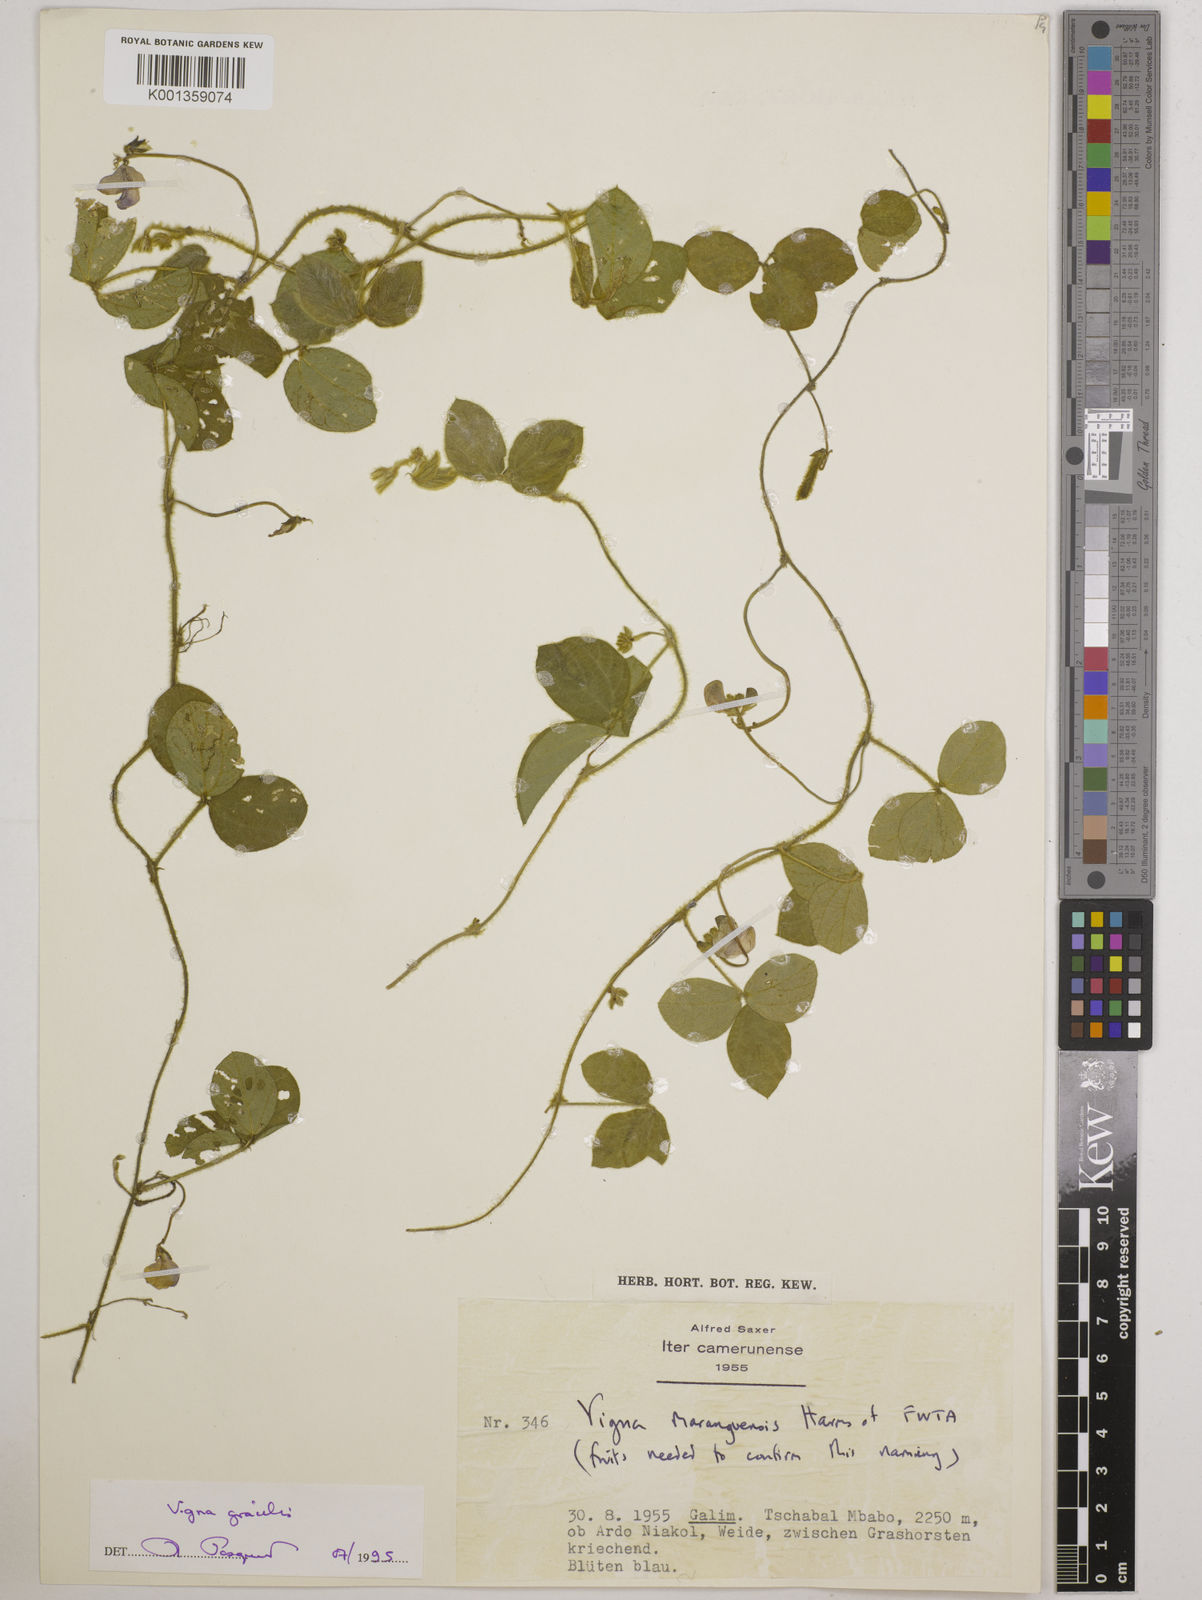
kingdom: Plantae
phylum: Tracheophyta
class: Magnoliopsida
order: Fabales
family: Fabaceae
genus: Vigna
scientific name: Vigna gracilis
